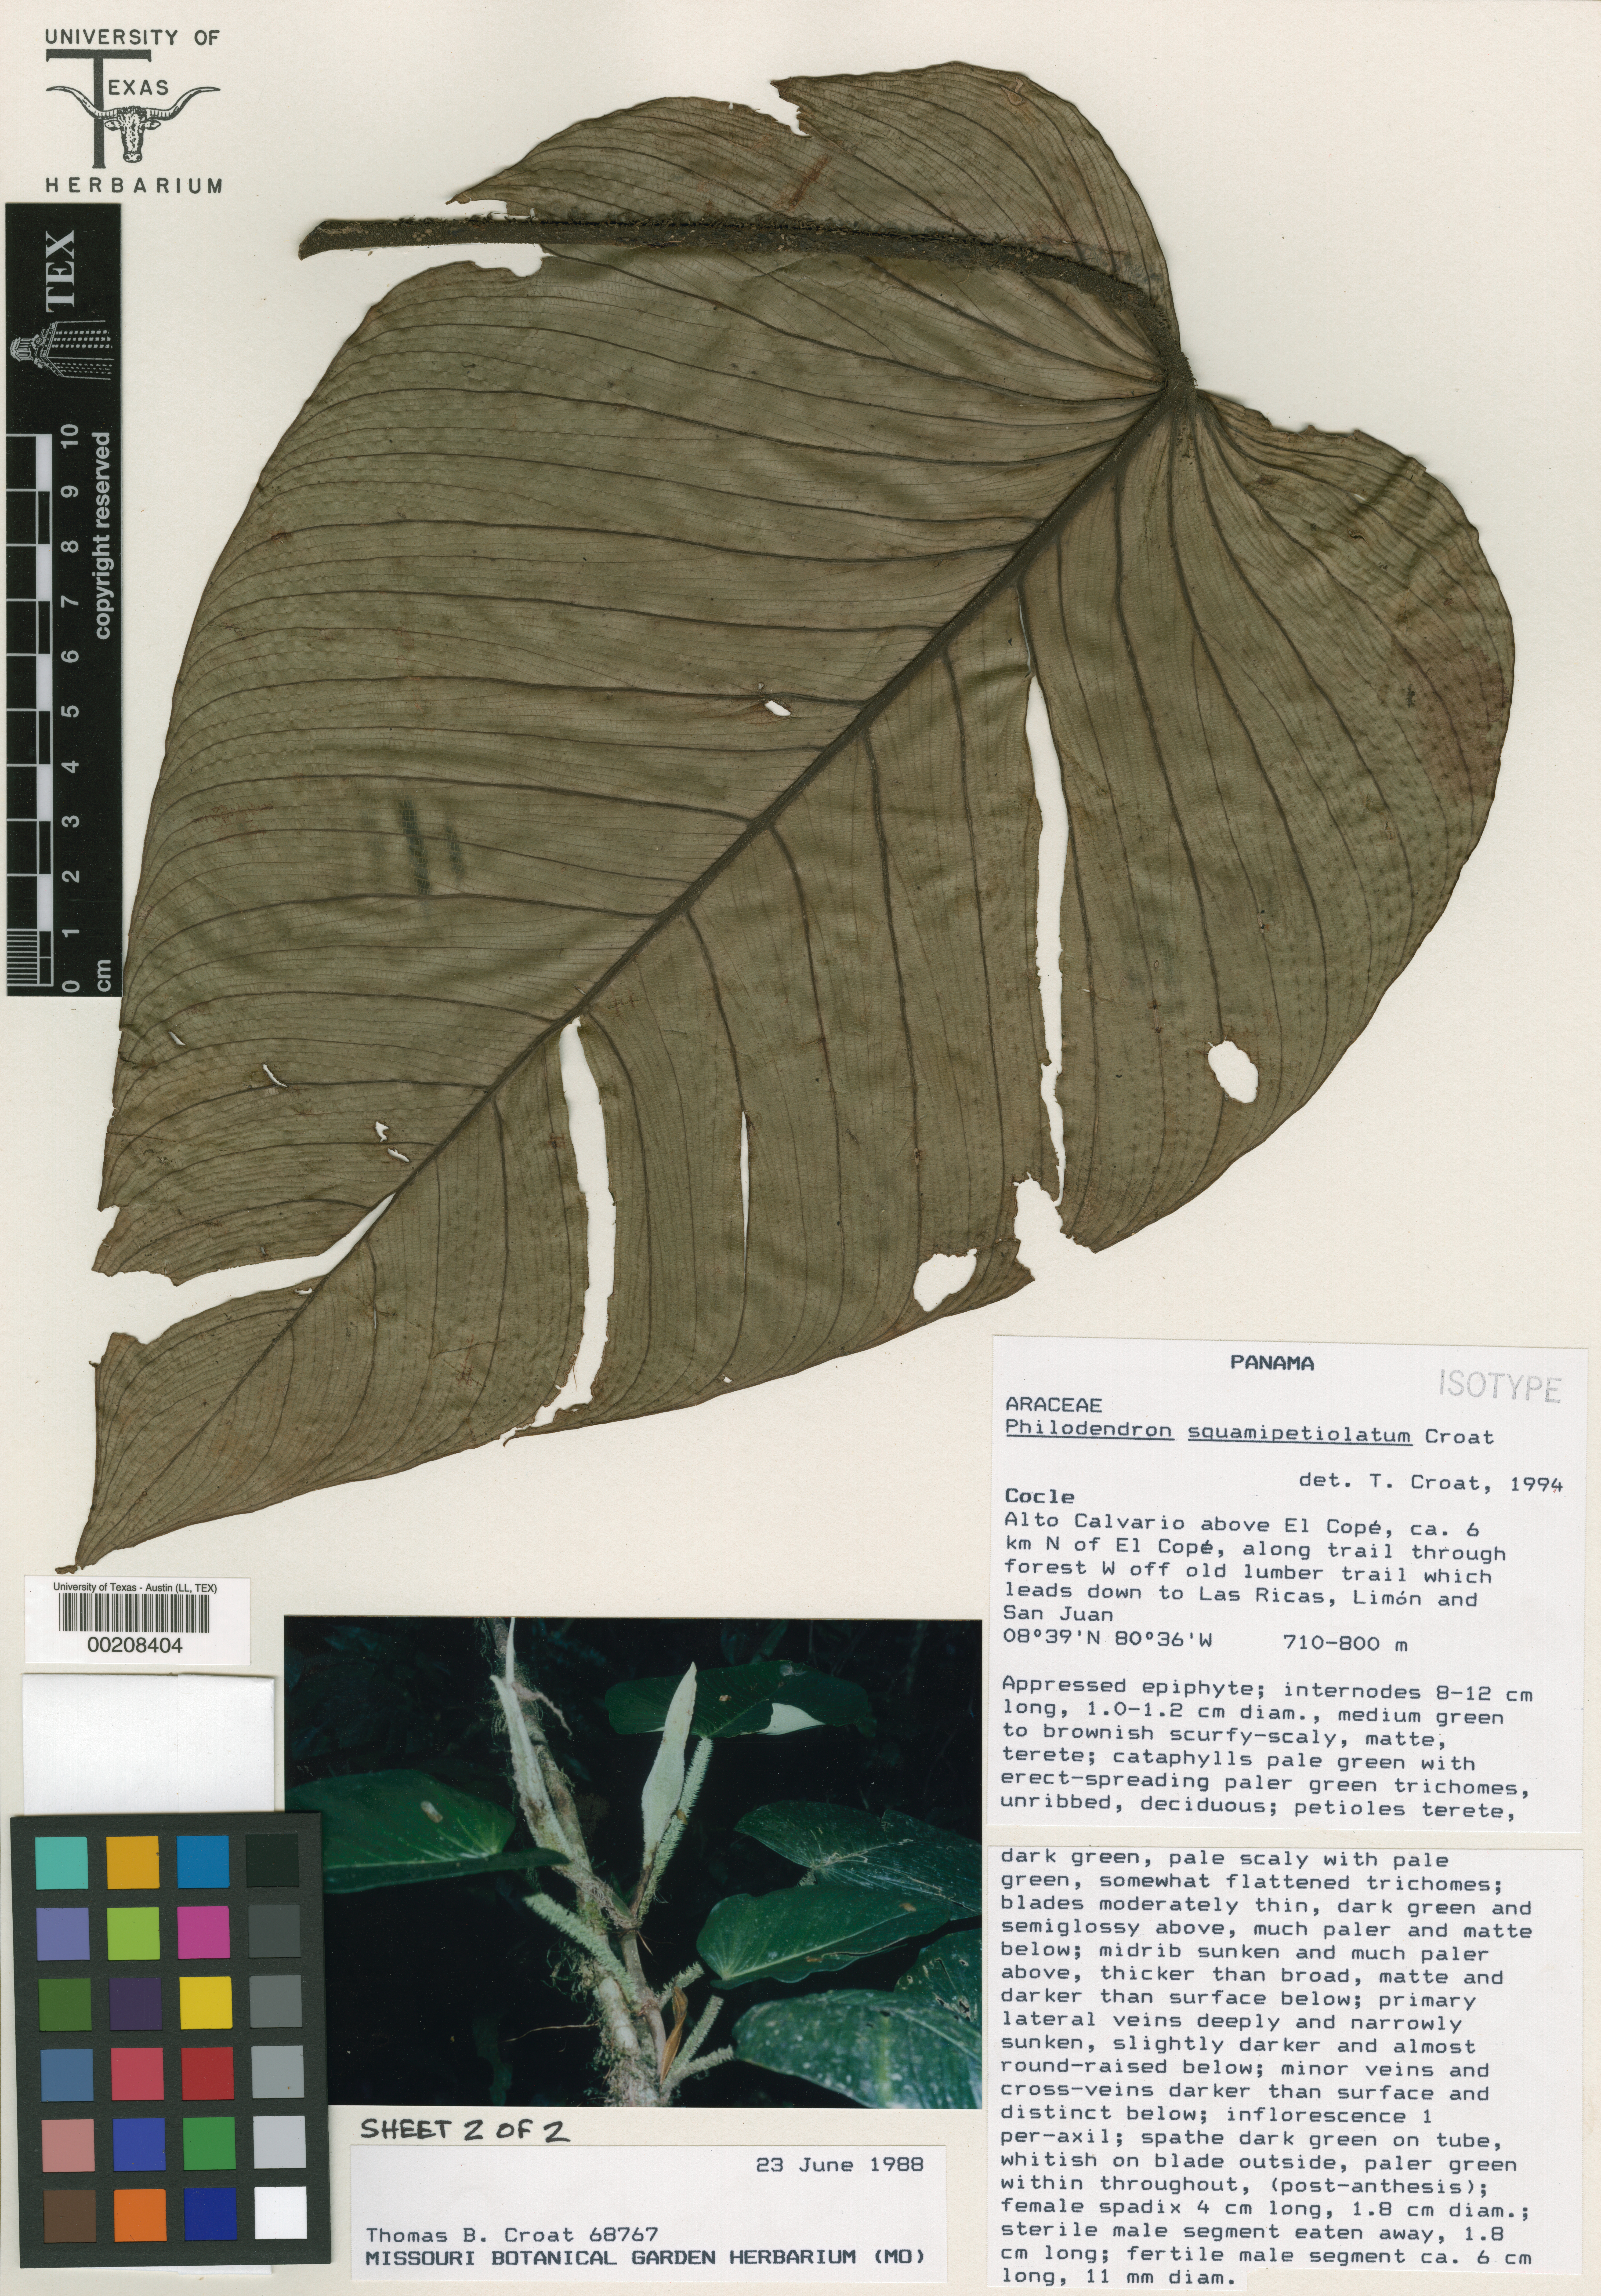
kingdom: Plantae
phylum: Tracheophyta
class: Liliopsida
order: Alismatales
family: Araceae
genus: Philodendron
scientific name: Philodendron squamipetiolatum
